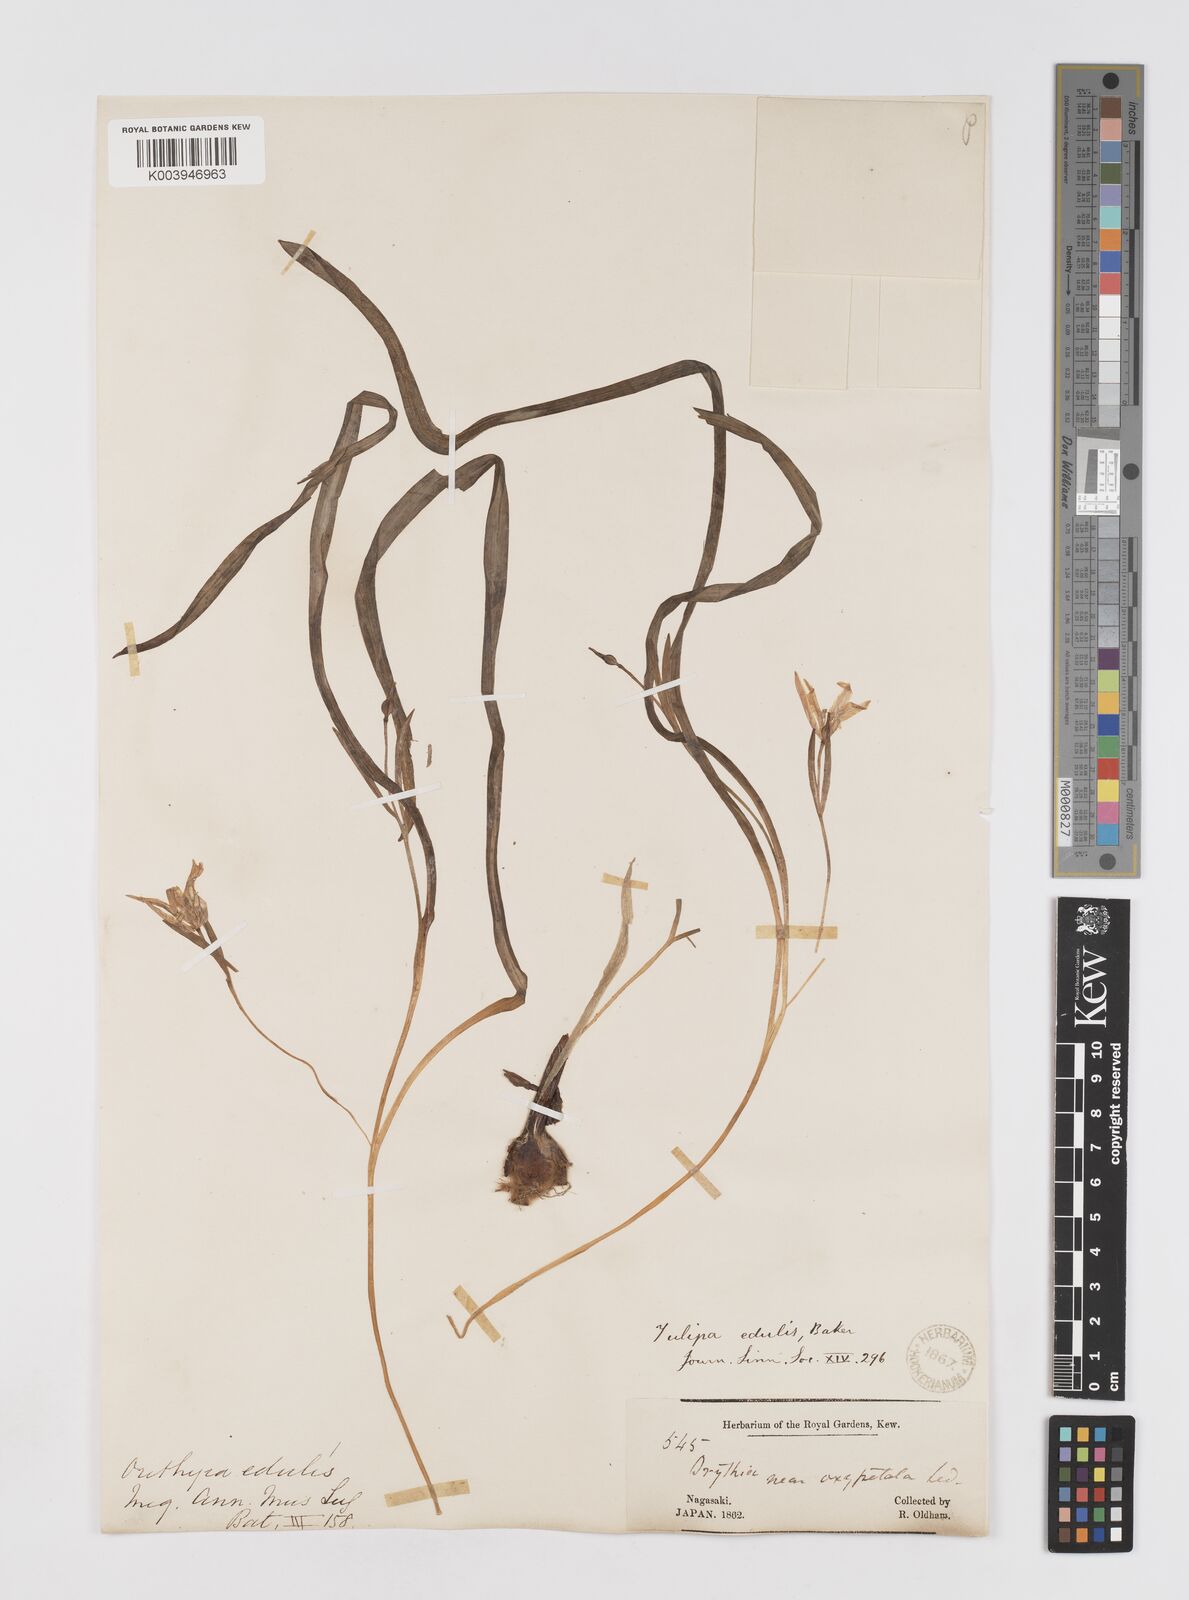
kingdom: Plantae
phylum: Tracheophyta
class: Liliopsida
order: Liliales
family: Liliaceae
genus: Amana
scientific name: Amana edulis
